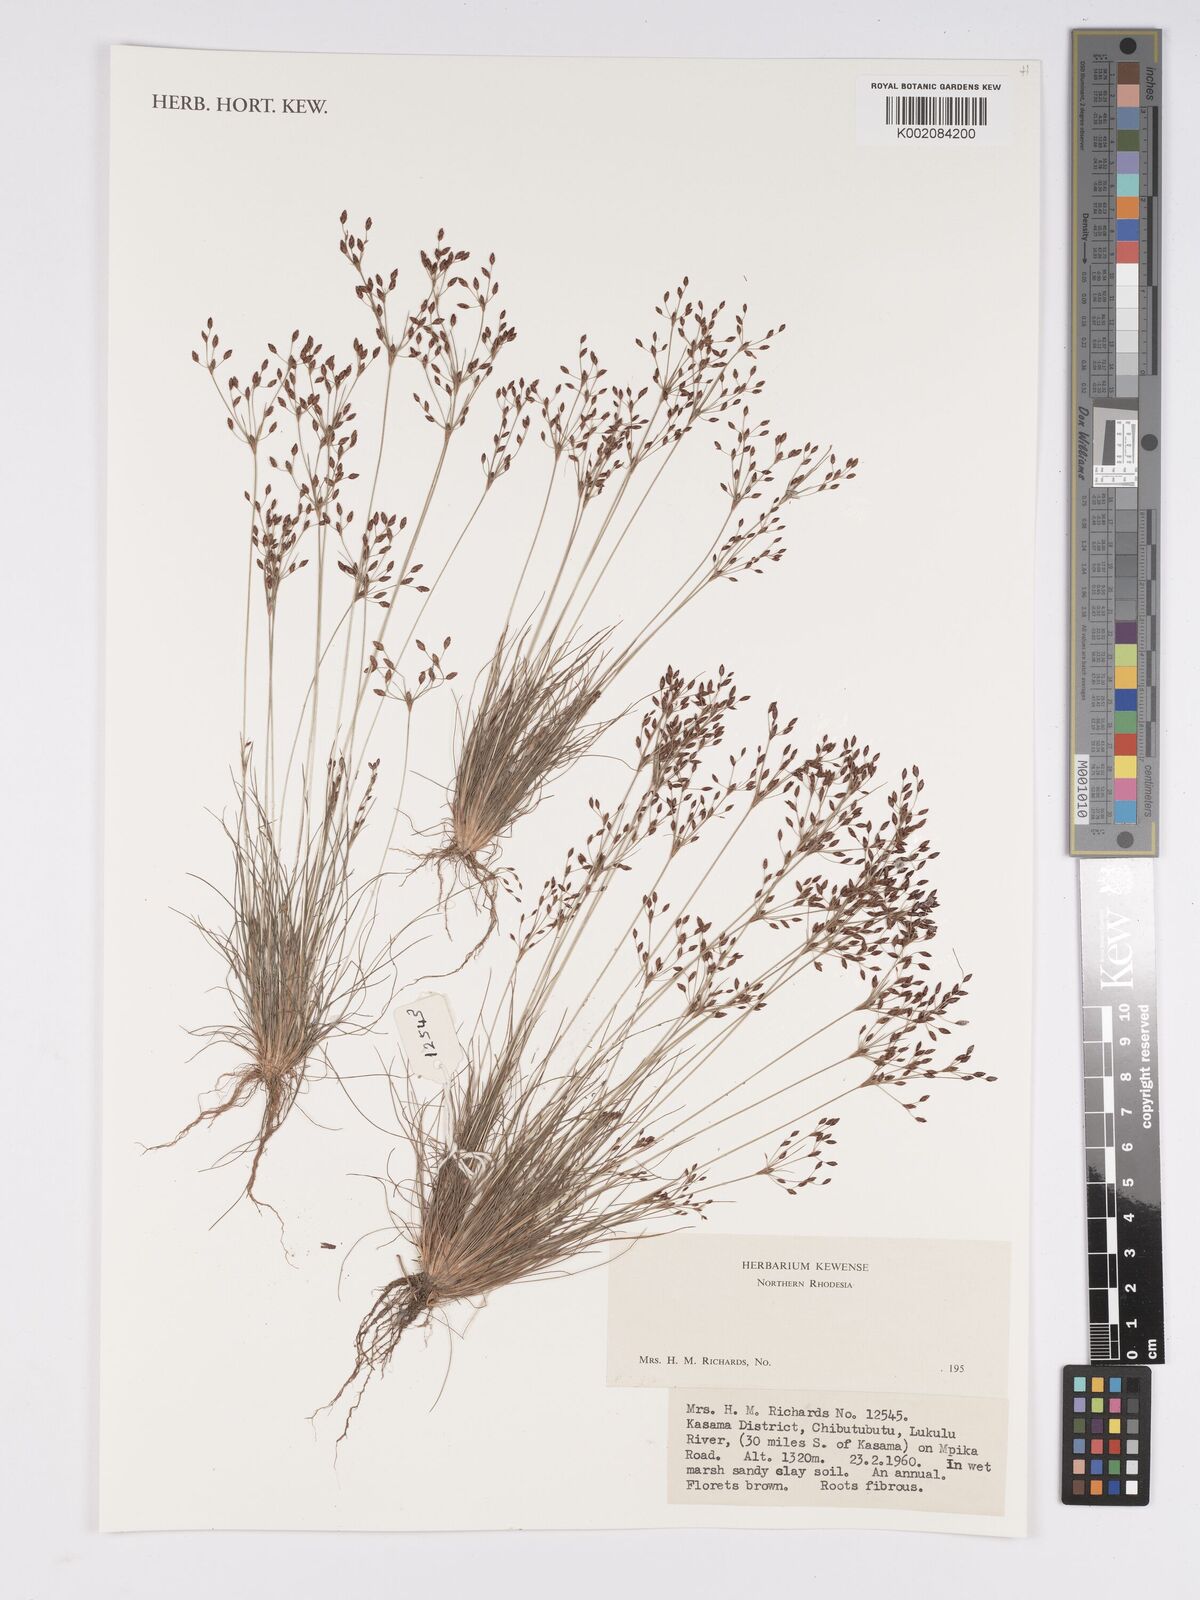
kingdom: Plantae
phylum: Tracheophyta
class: Liliopsida
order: Poales
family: Cyperaceae
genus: Bulbostylis
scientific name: Bulbostylis
